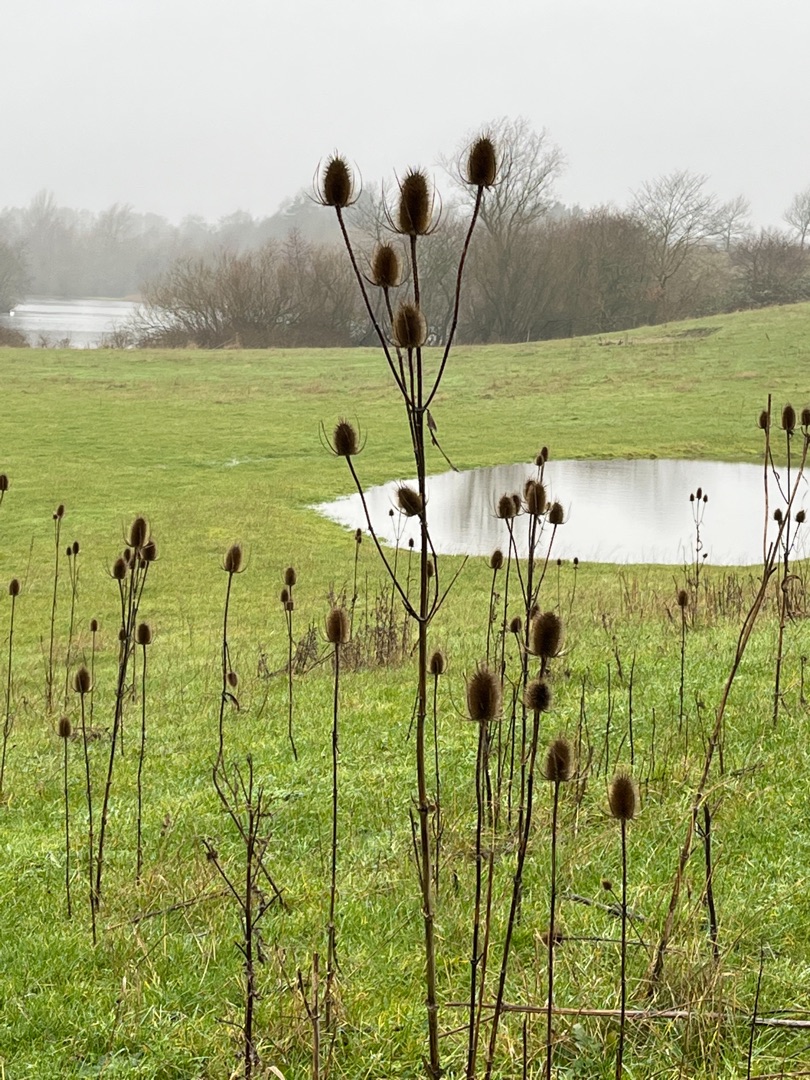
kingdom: Plantae
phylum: Tracheophyta
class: Magnoliopsida
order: Dipsacales
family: Caprifoliaceae
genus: Dipsacus
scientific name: Dipsacus fullonum
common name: Gærde-kartebolle
